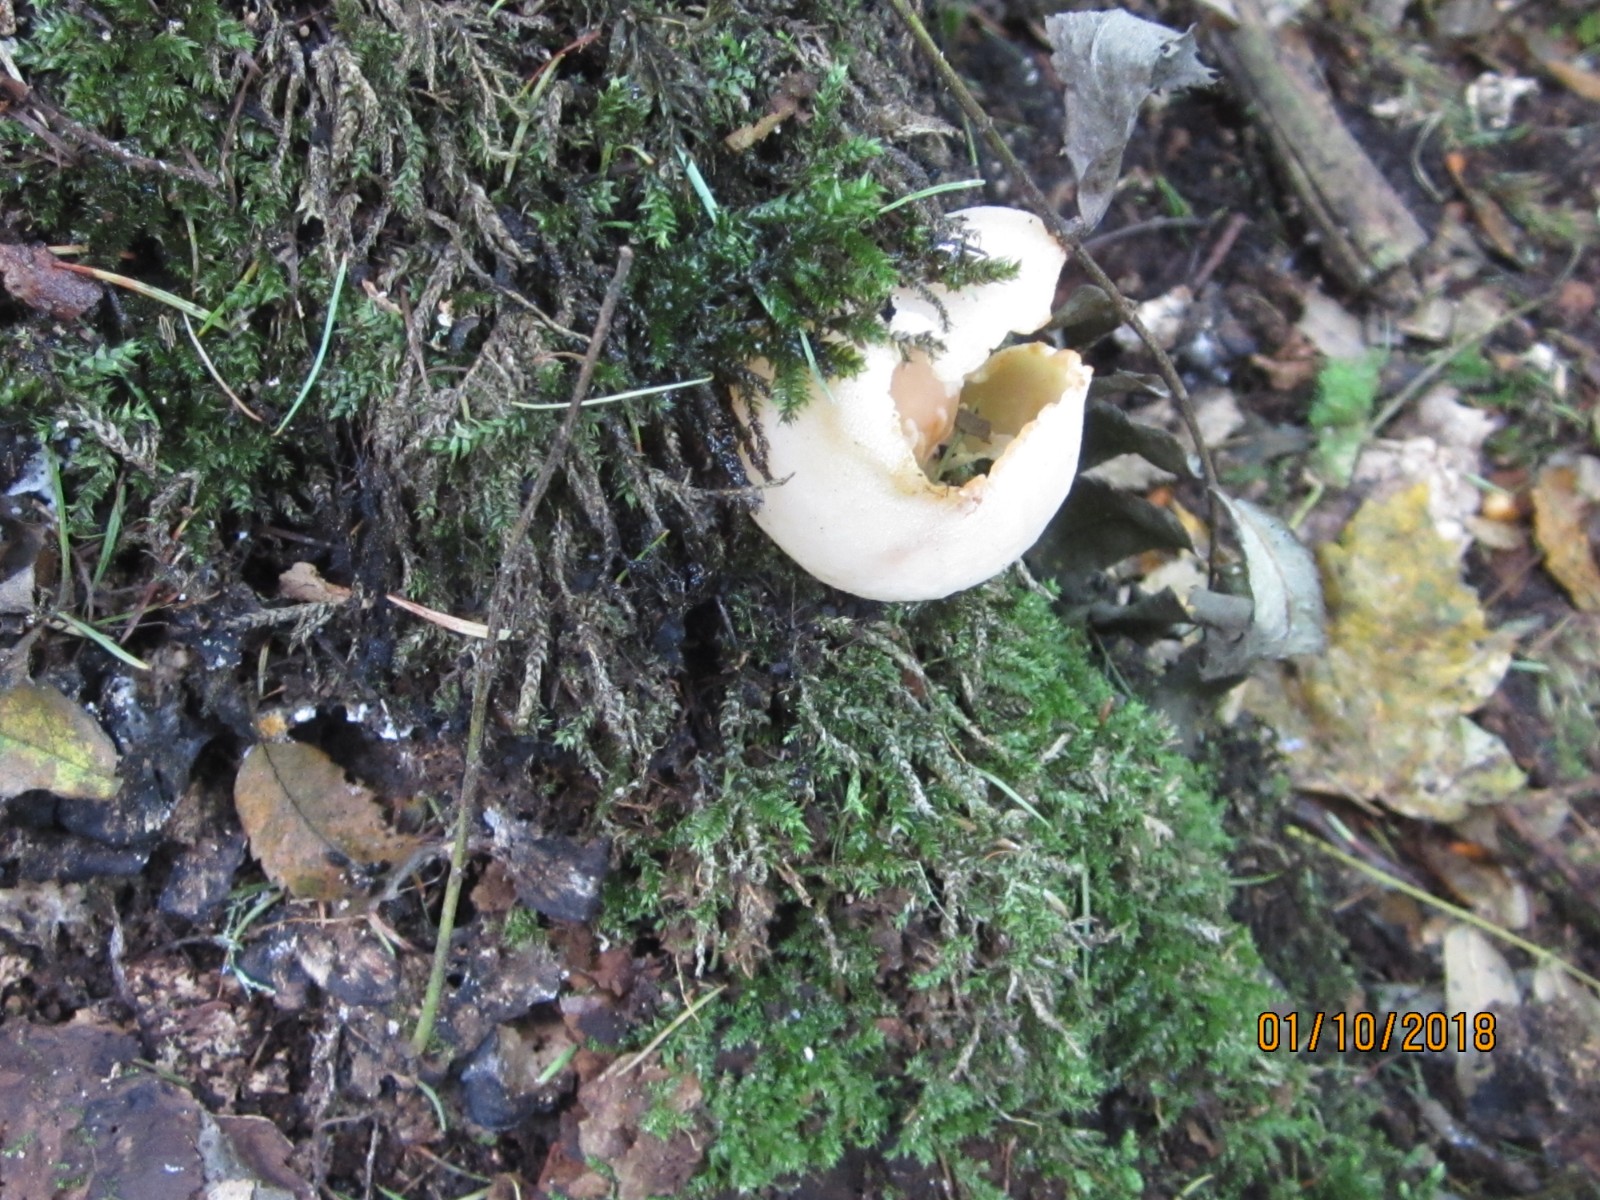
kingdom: Fungi
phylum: Ascomycota
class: Pezizomycetes
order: Pezizales
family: Pezizaceae
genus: Peziza
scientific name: Peziza varia
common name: Ved-bægersvamp
